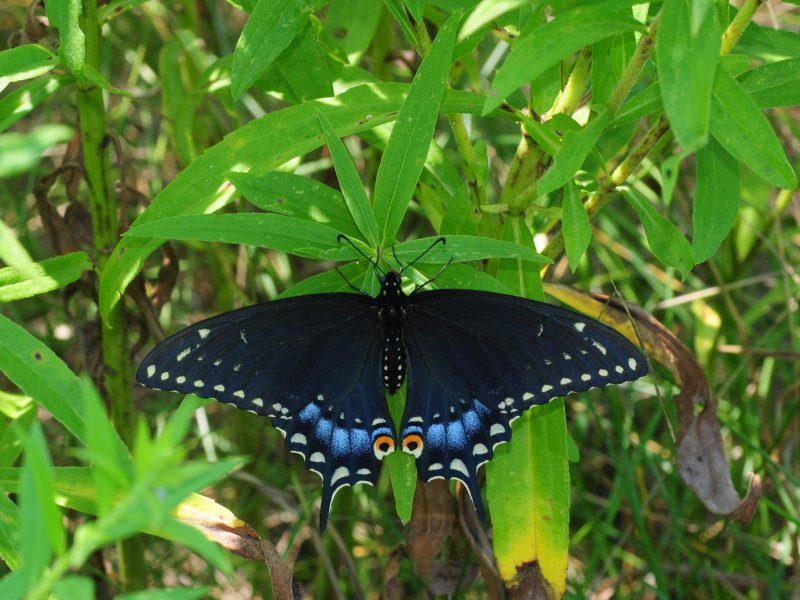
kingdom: Animalia
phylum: Arthropoda
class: Insecta
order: Lepidoptera
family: Papilionidae
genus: Papilio
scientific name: Papilio polyxenes
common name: Black Swallowtail
